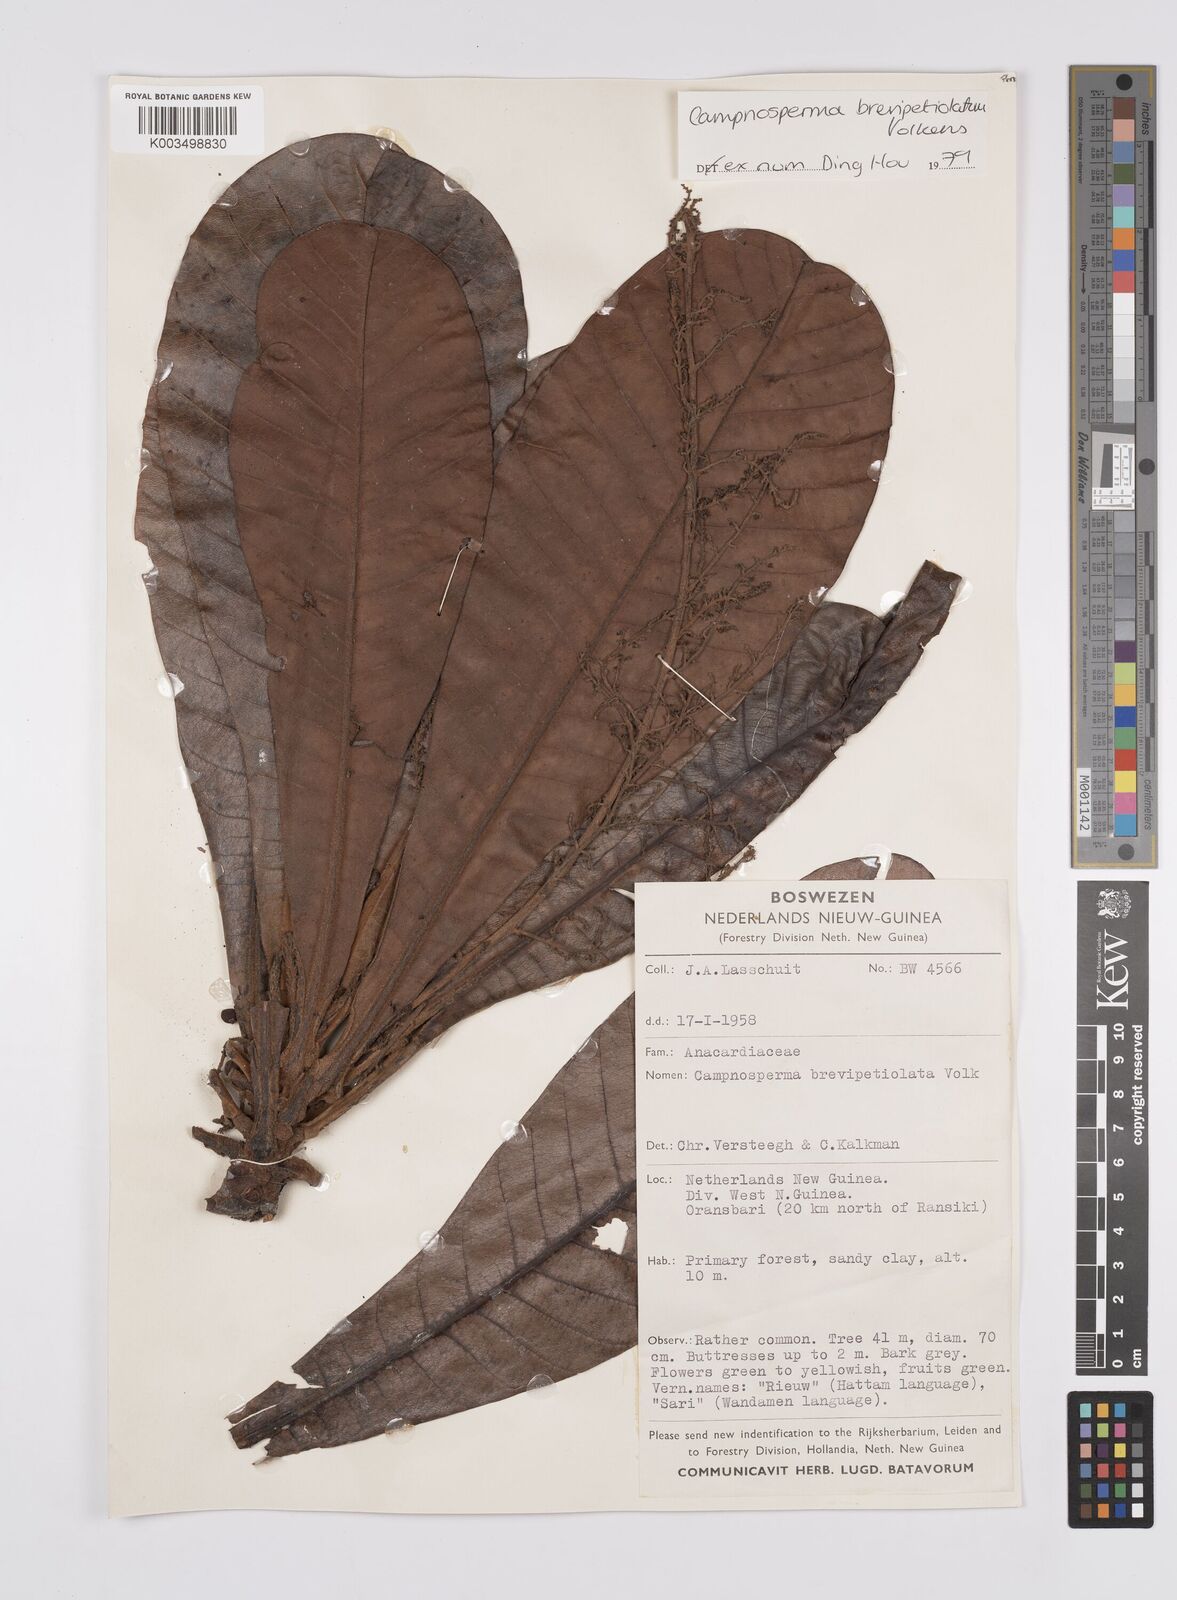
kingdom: Plantae
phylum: Tracheophyta
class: Magnoliopsida
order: Sapindales
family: Anacardiaceae
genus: Campnosperma
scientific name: Campnosperma brevipetiolatum
